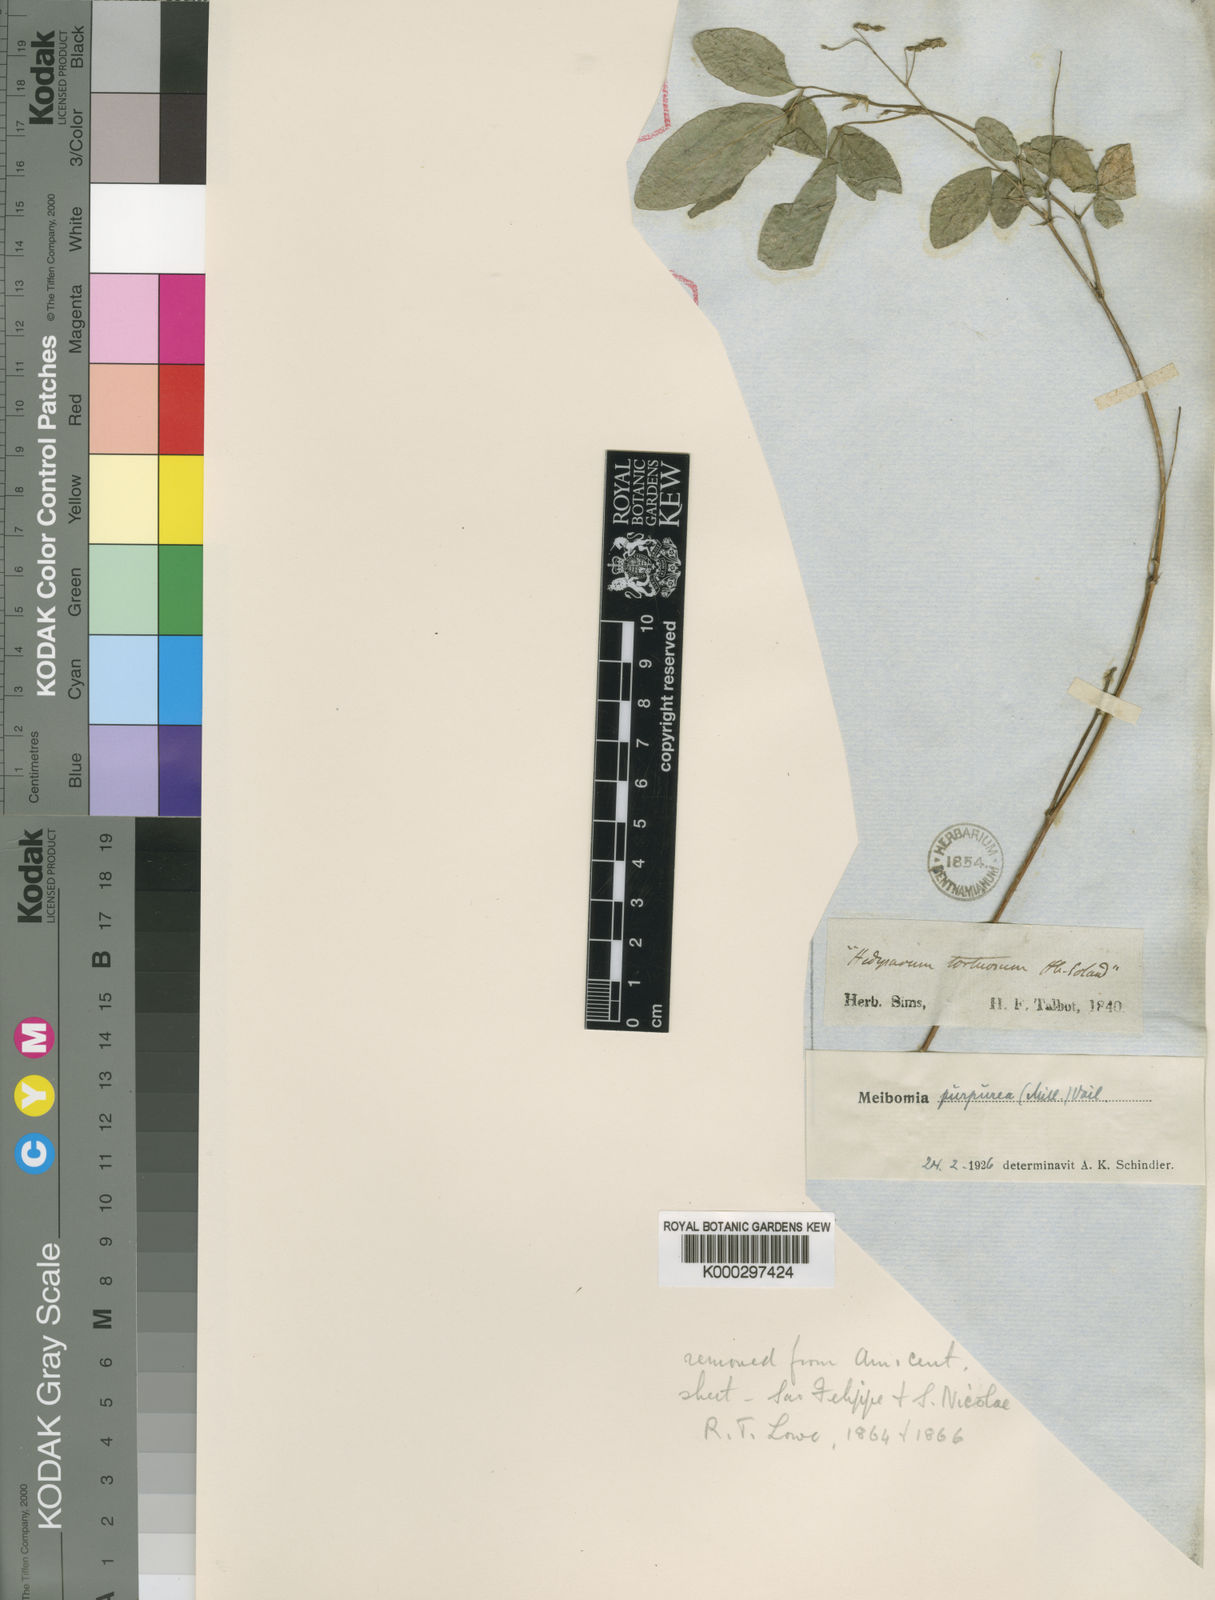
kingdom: Plantae
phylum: Tracheophyta
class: Magnoliopsida
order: Fabales
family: Fabaceae
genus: Desmodium
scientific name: Desmodium procumbens
